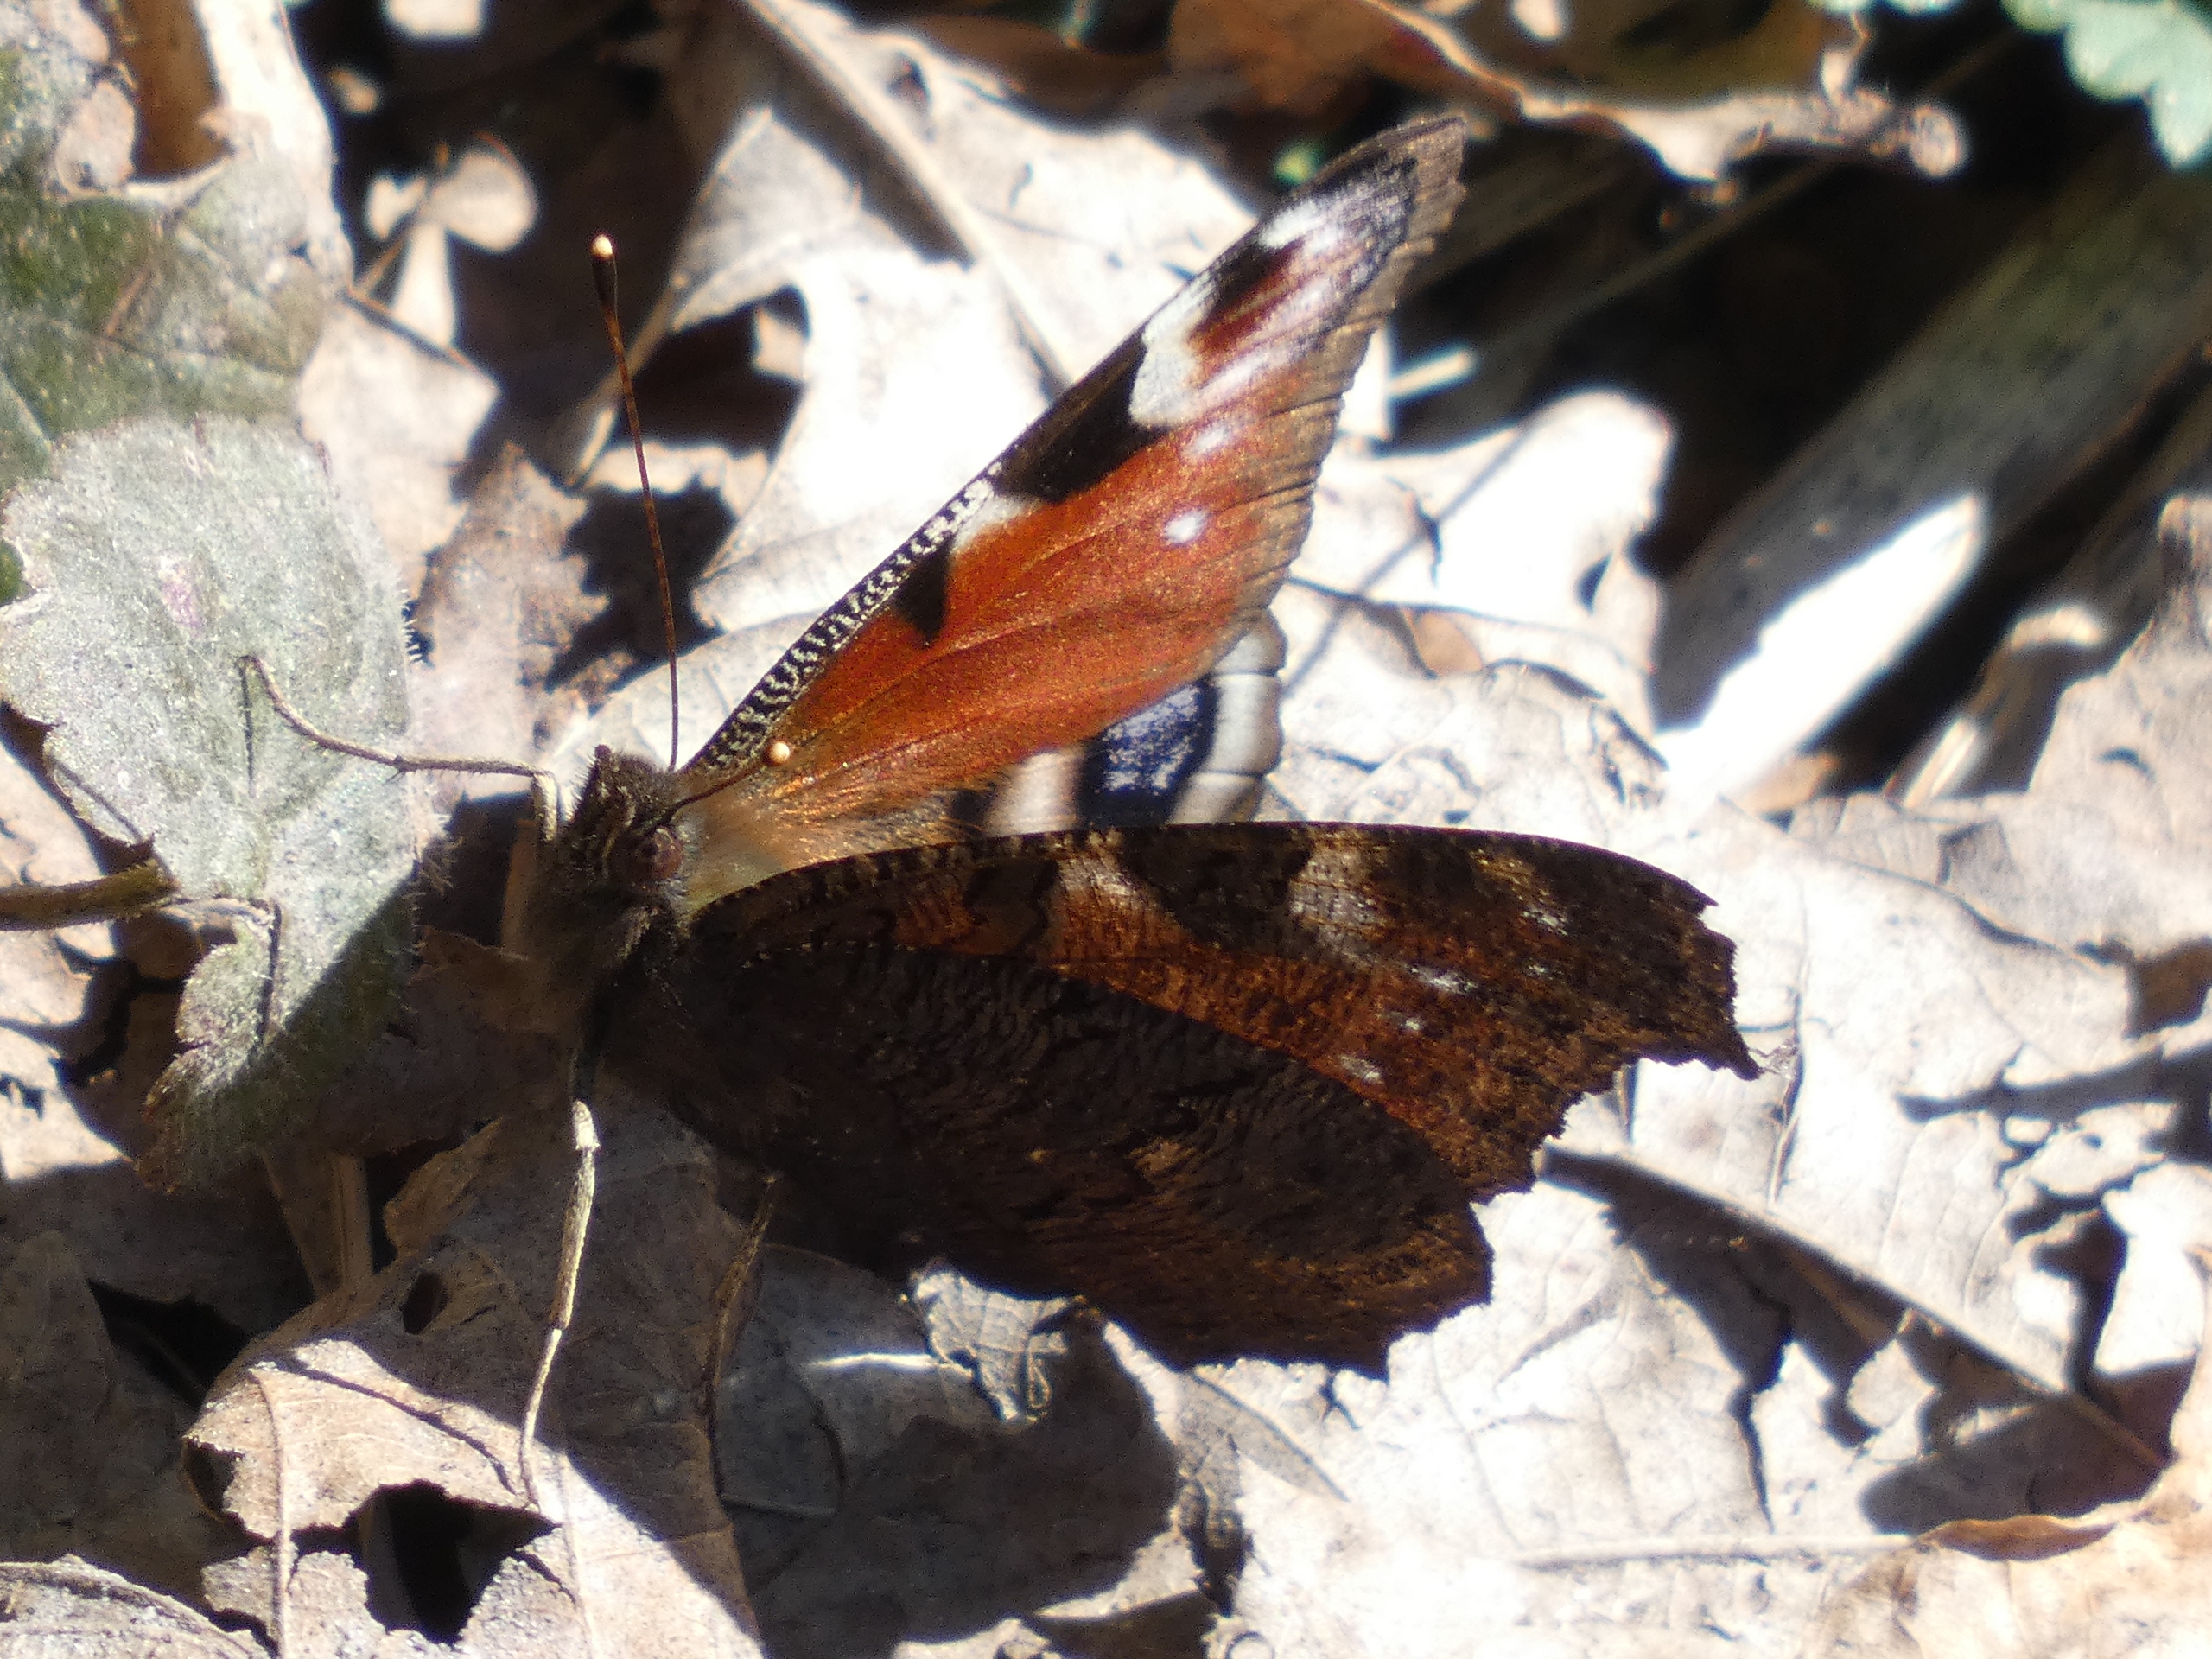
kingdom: Animalia
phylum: Arthropoda
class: Insecta
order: Lepidoptera
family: Nymphalidae
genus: Aglais
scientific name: Aglais io
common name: Dagpåfugleøje
